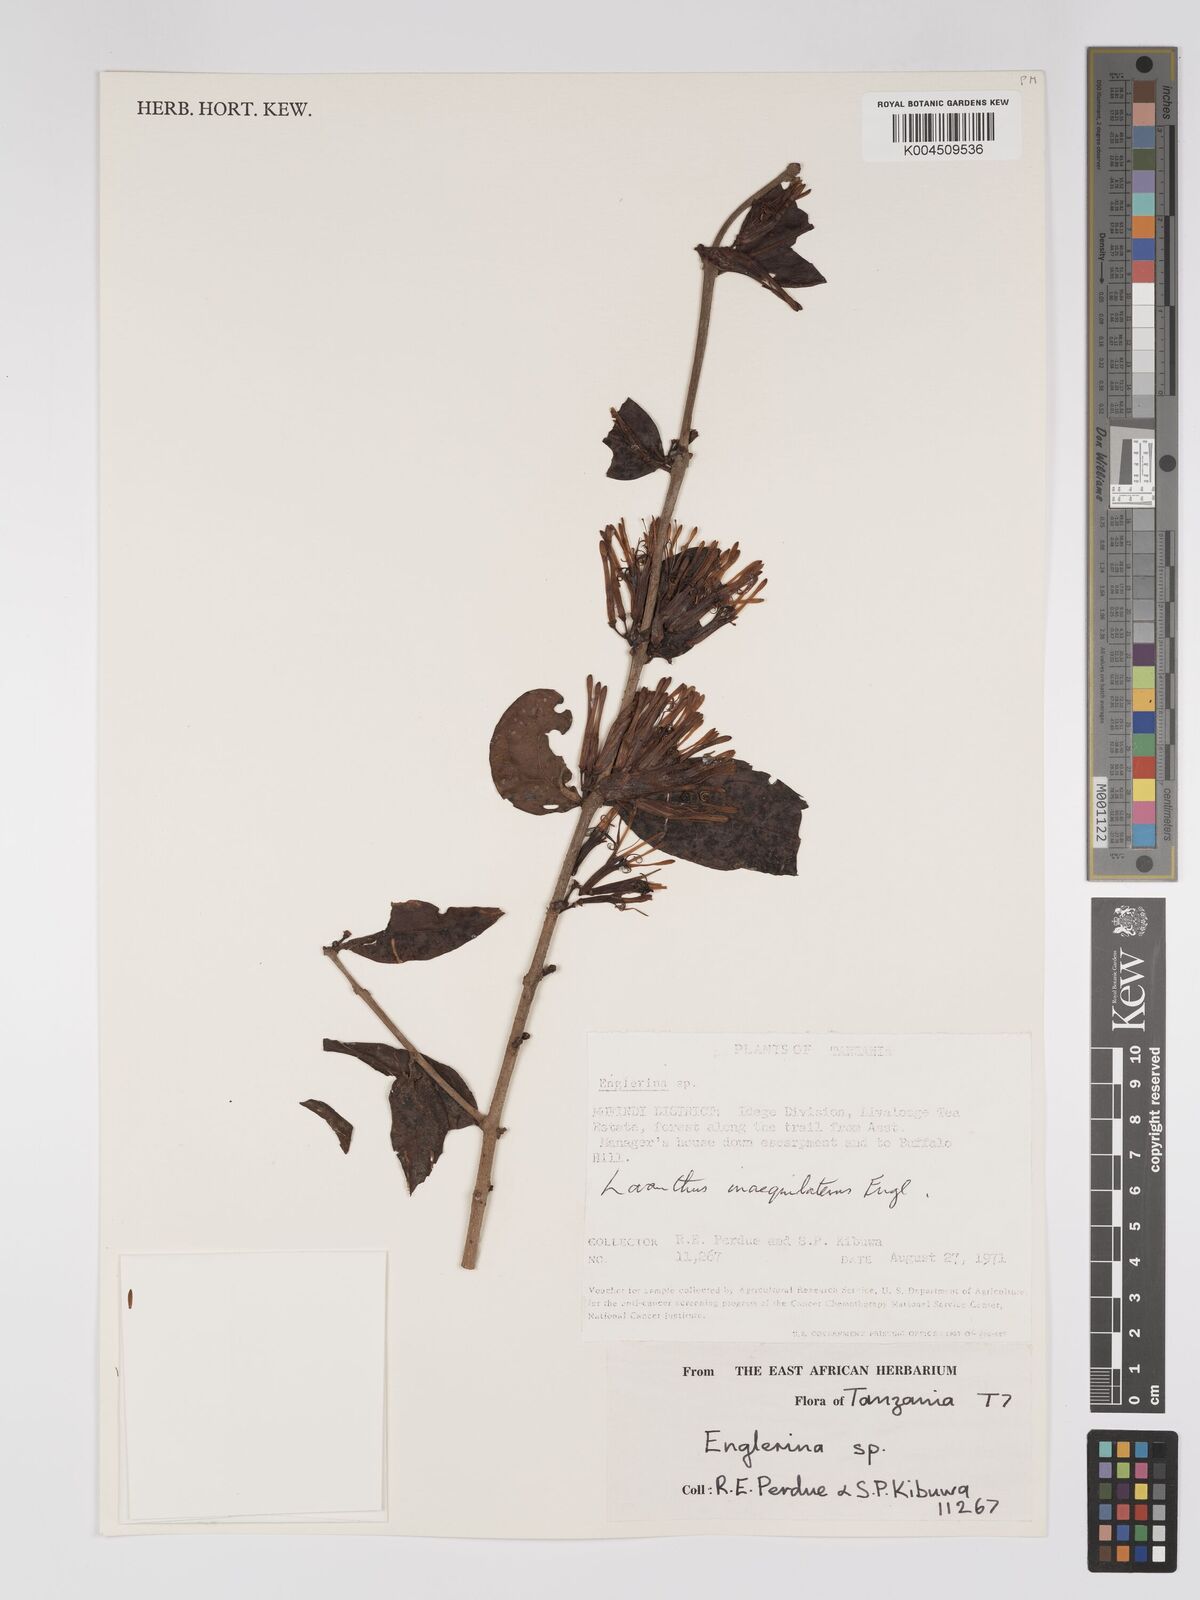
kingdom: Plantae
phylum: Tracheophyta
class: Magnoliopsida
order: Santalales
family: Loranthaceae
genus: Englerina
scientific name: Englerina inaequilatera
